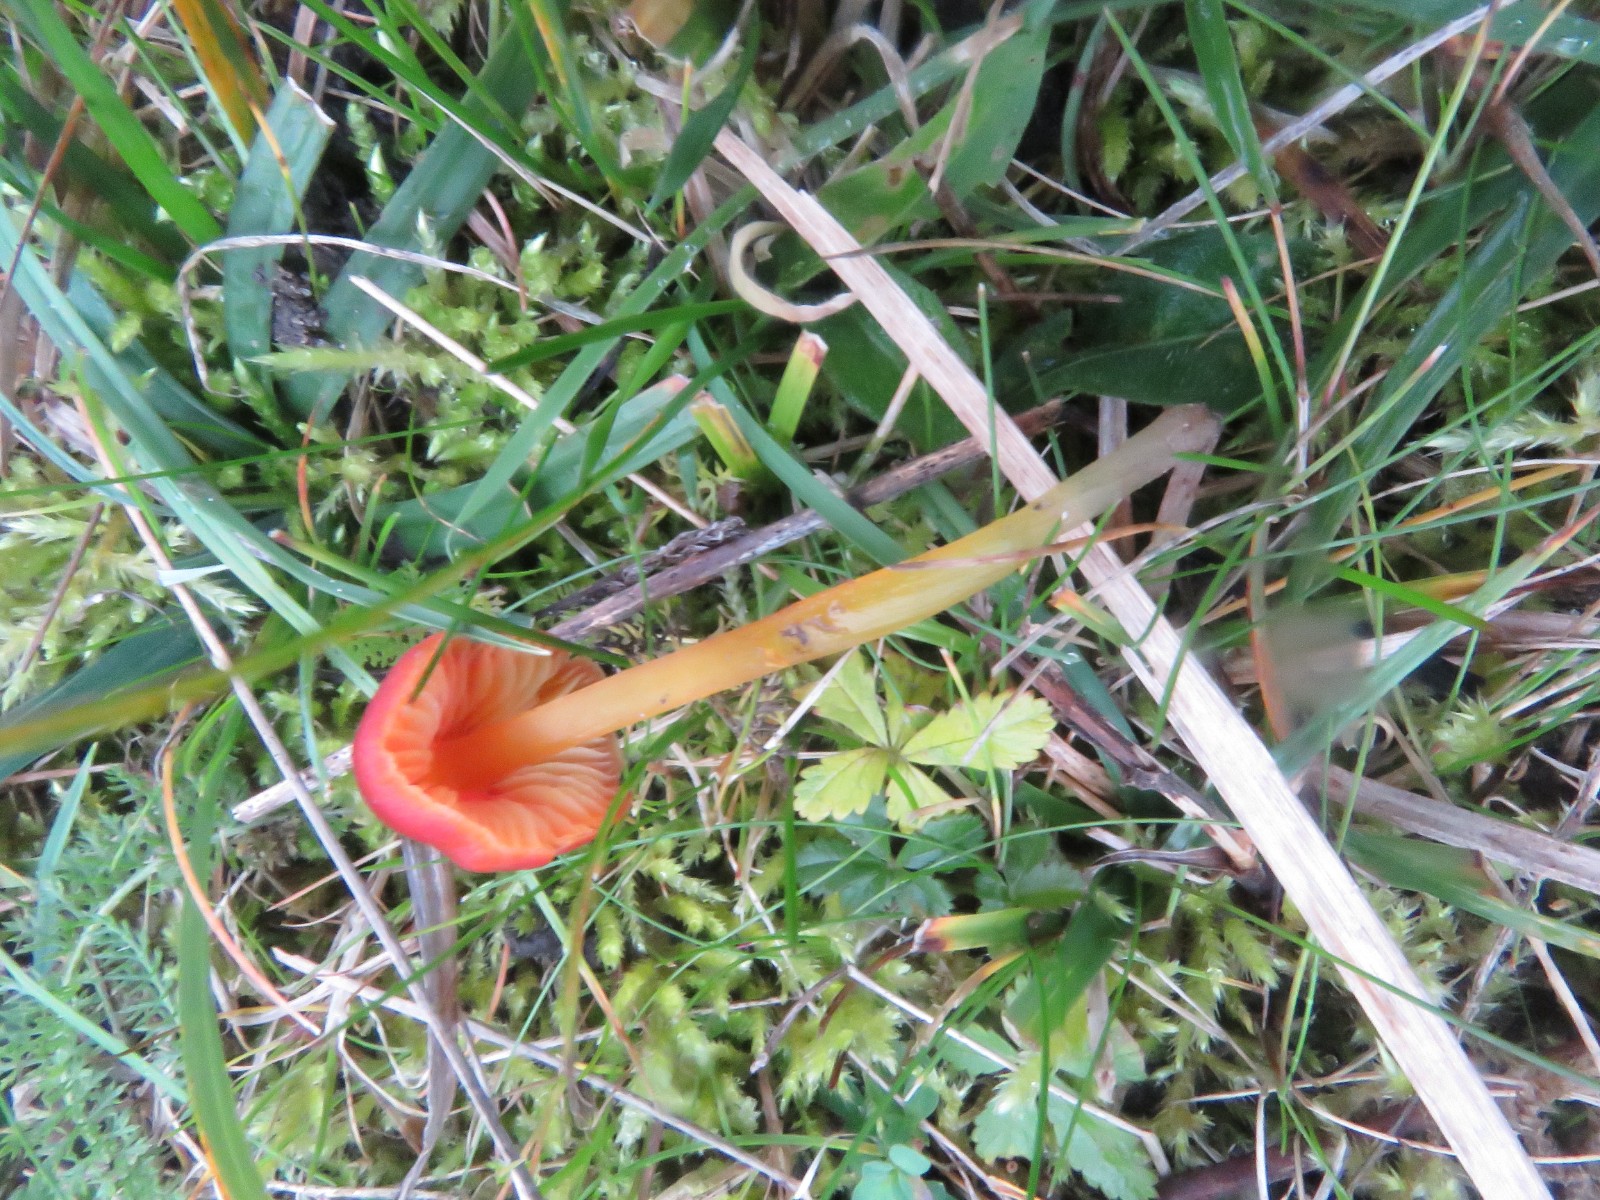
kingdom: Fungi
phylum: Basidiomycota
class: Agaricomycetes
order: Agaricales
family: Hygrophoraceae
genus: Hygrocybe
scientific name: Hygrocybe conica
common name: kegle-vokshat
